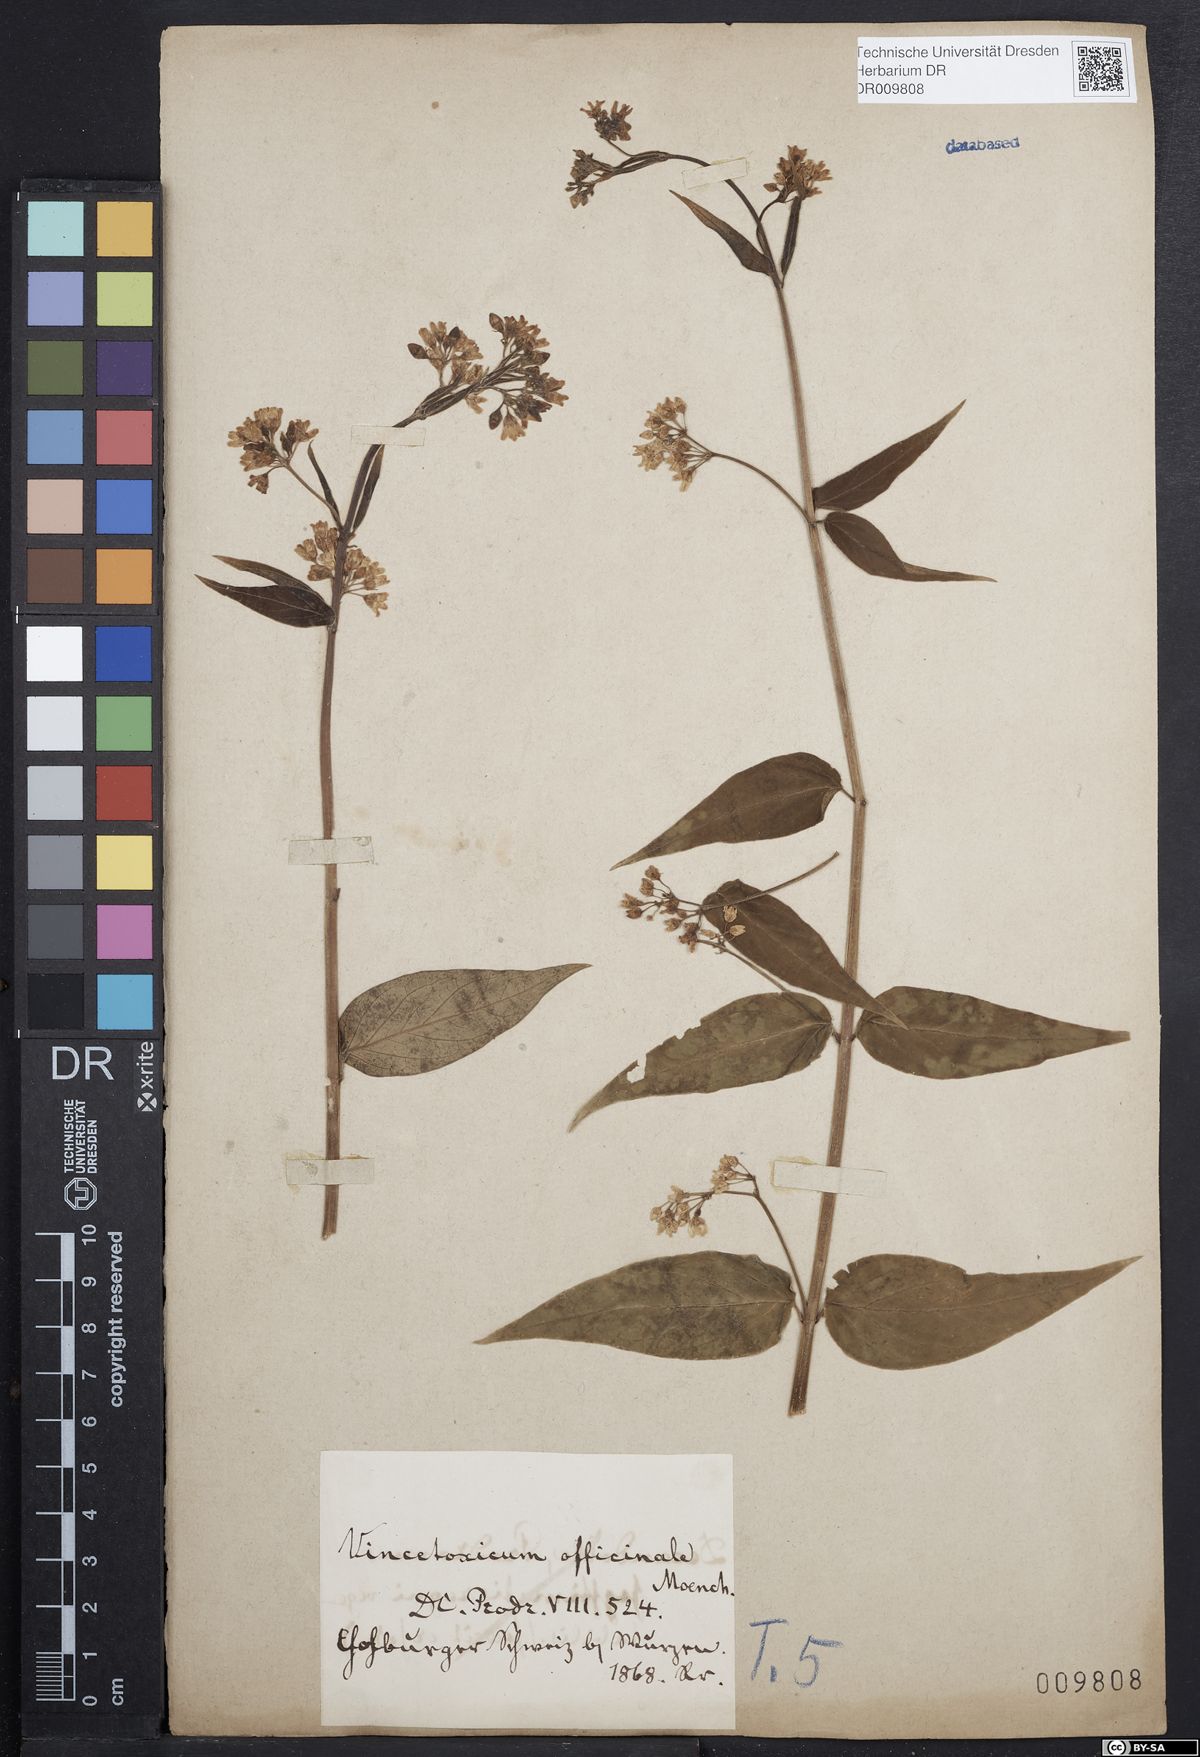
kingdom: Plantae
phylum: Tracheophyta
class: Magnoliopsida
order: Gentianales
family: Apocynaceae
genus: Vincetoxicum
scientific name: Vincetoxicum hirundinaria
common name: White swallowwort
